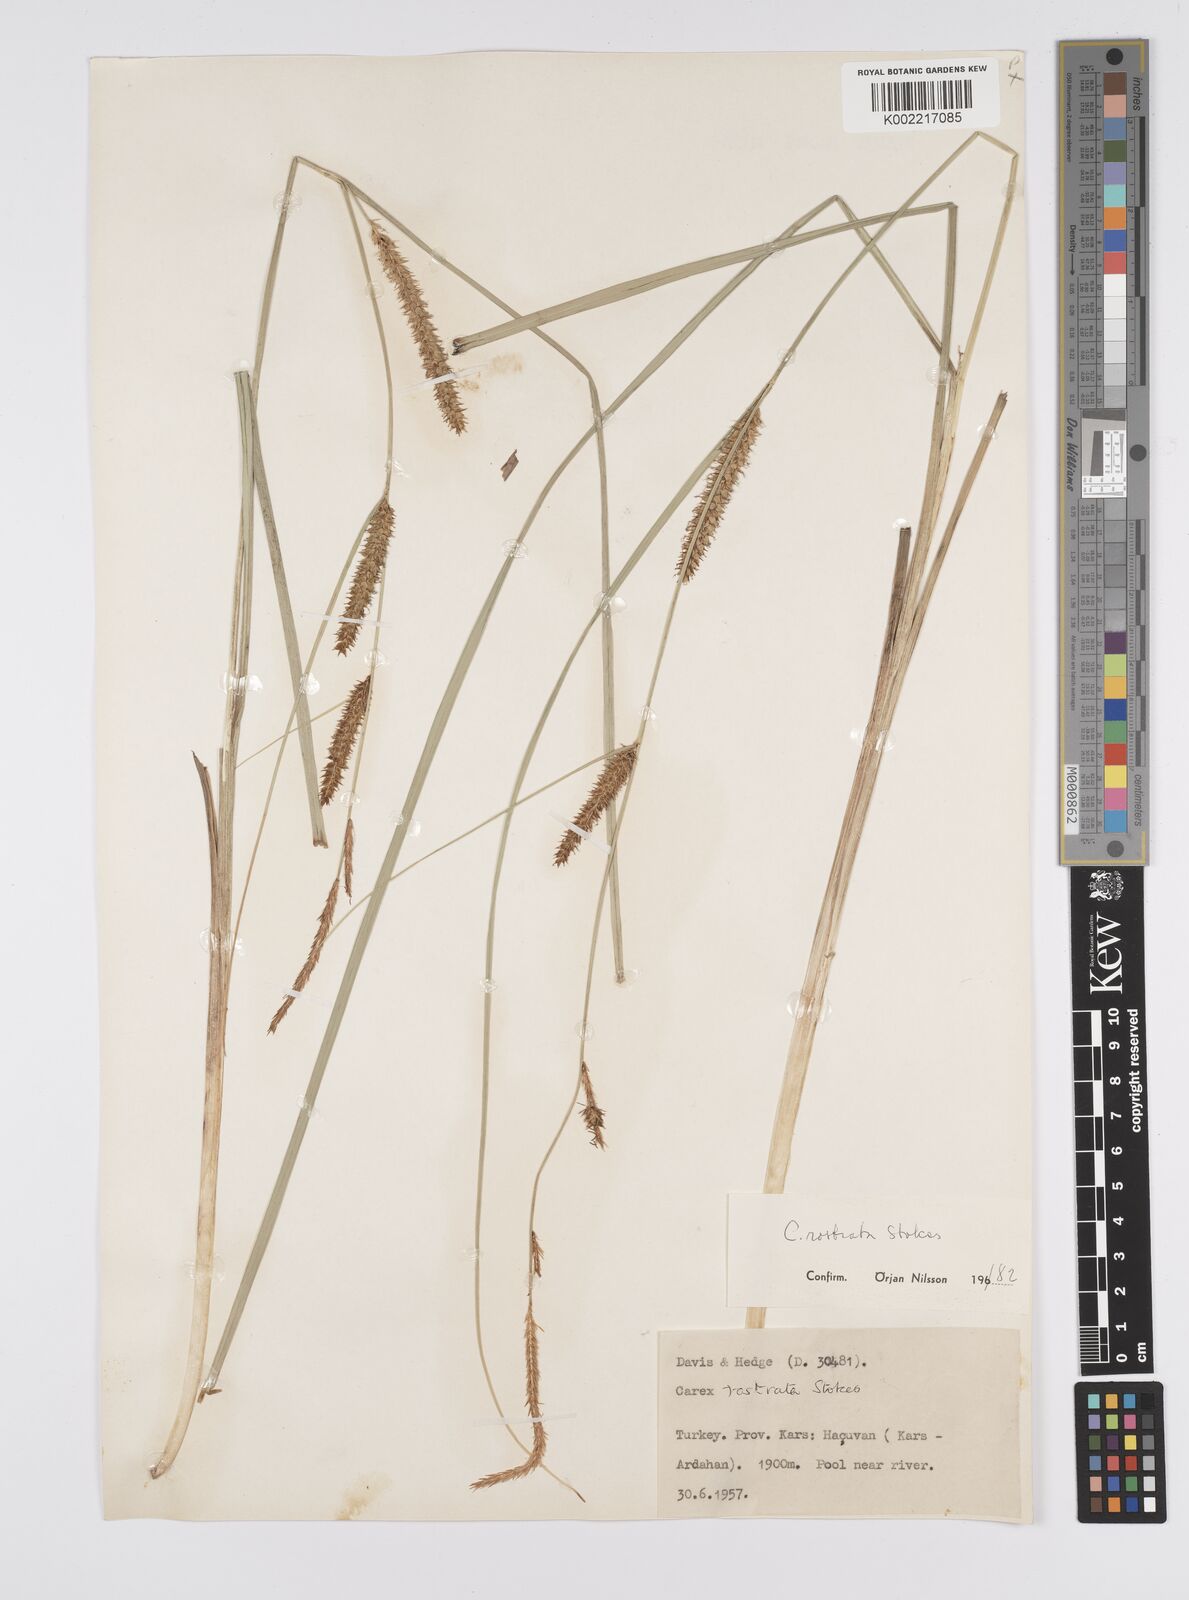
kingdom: Plantae
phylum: Tracheophyta
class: Liliopsida
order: Poales
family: Cyperaceae
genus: Carex
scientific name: Carex rostrata
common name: Bottle sedge
